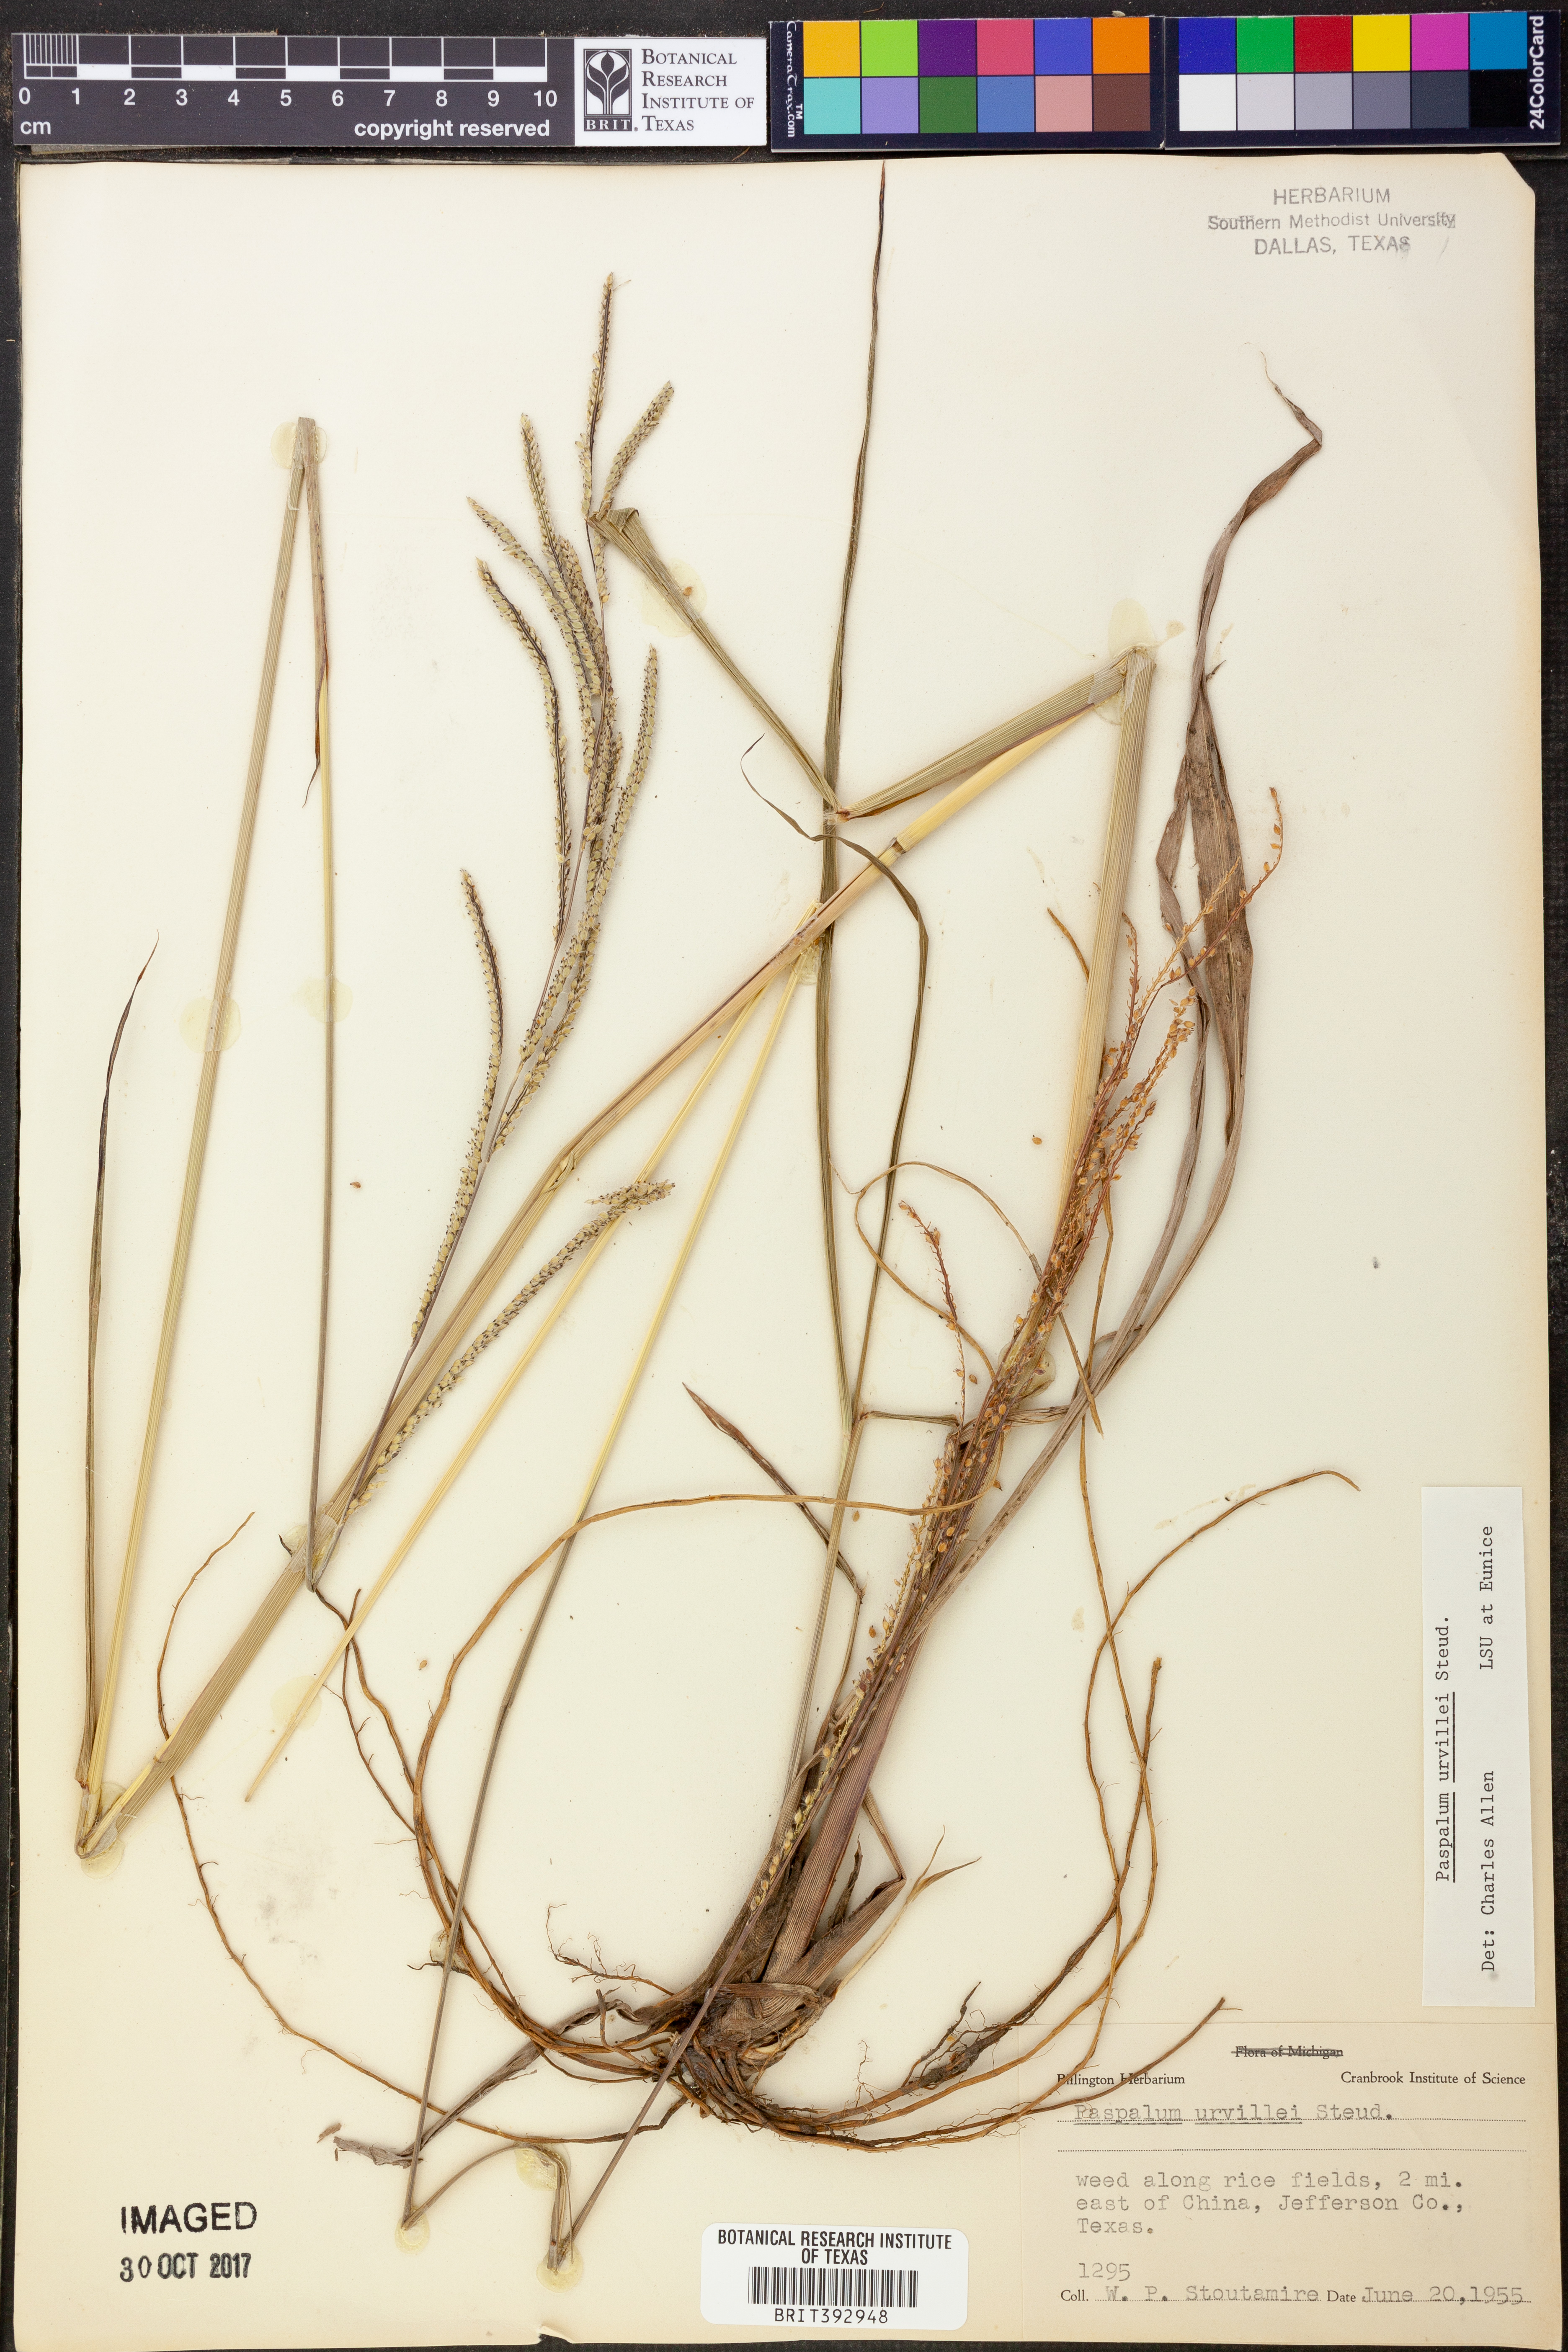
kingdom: Plantae
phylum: Tracheophyta
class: Liliopsida
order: Poales
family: Poaceae
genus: Paspalum
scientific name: Paspalum urvillei
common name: Vasey's grass
